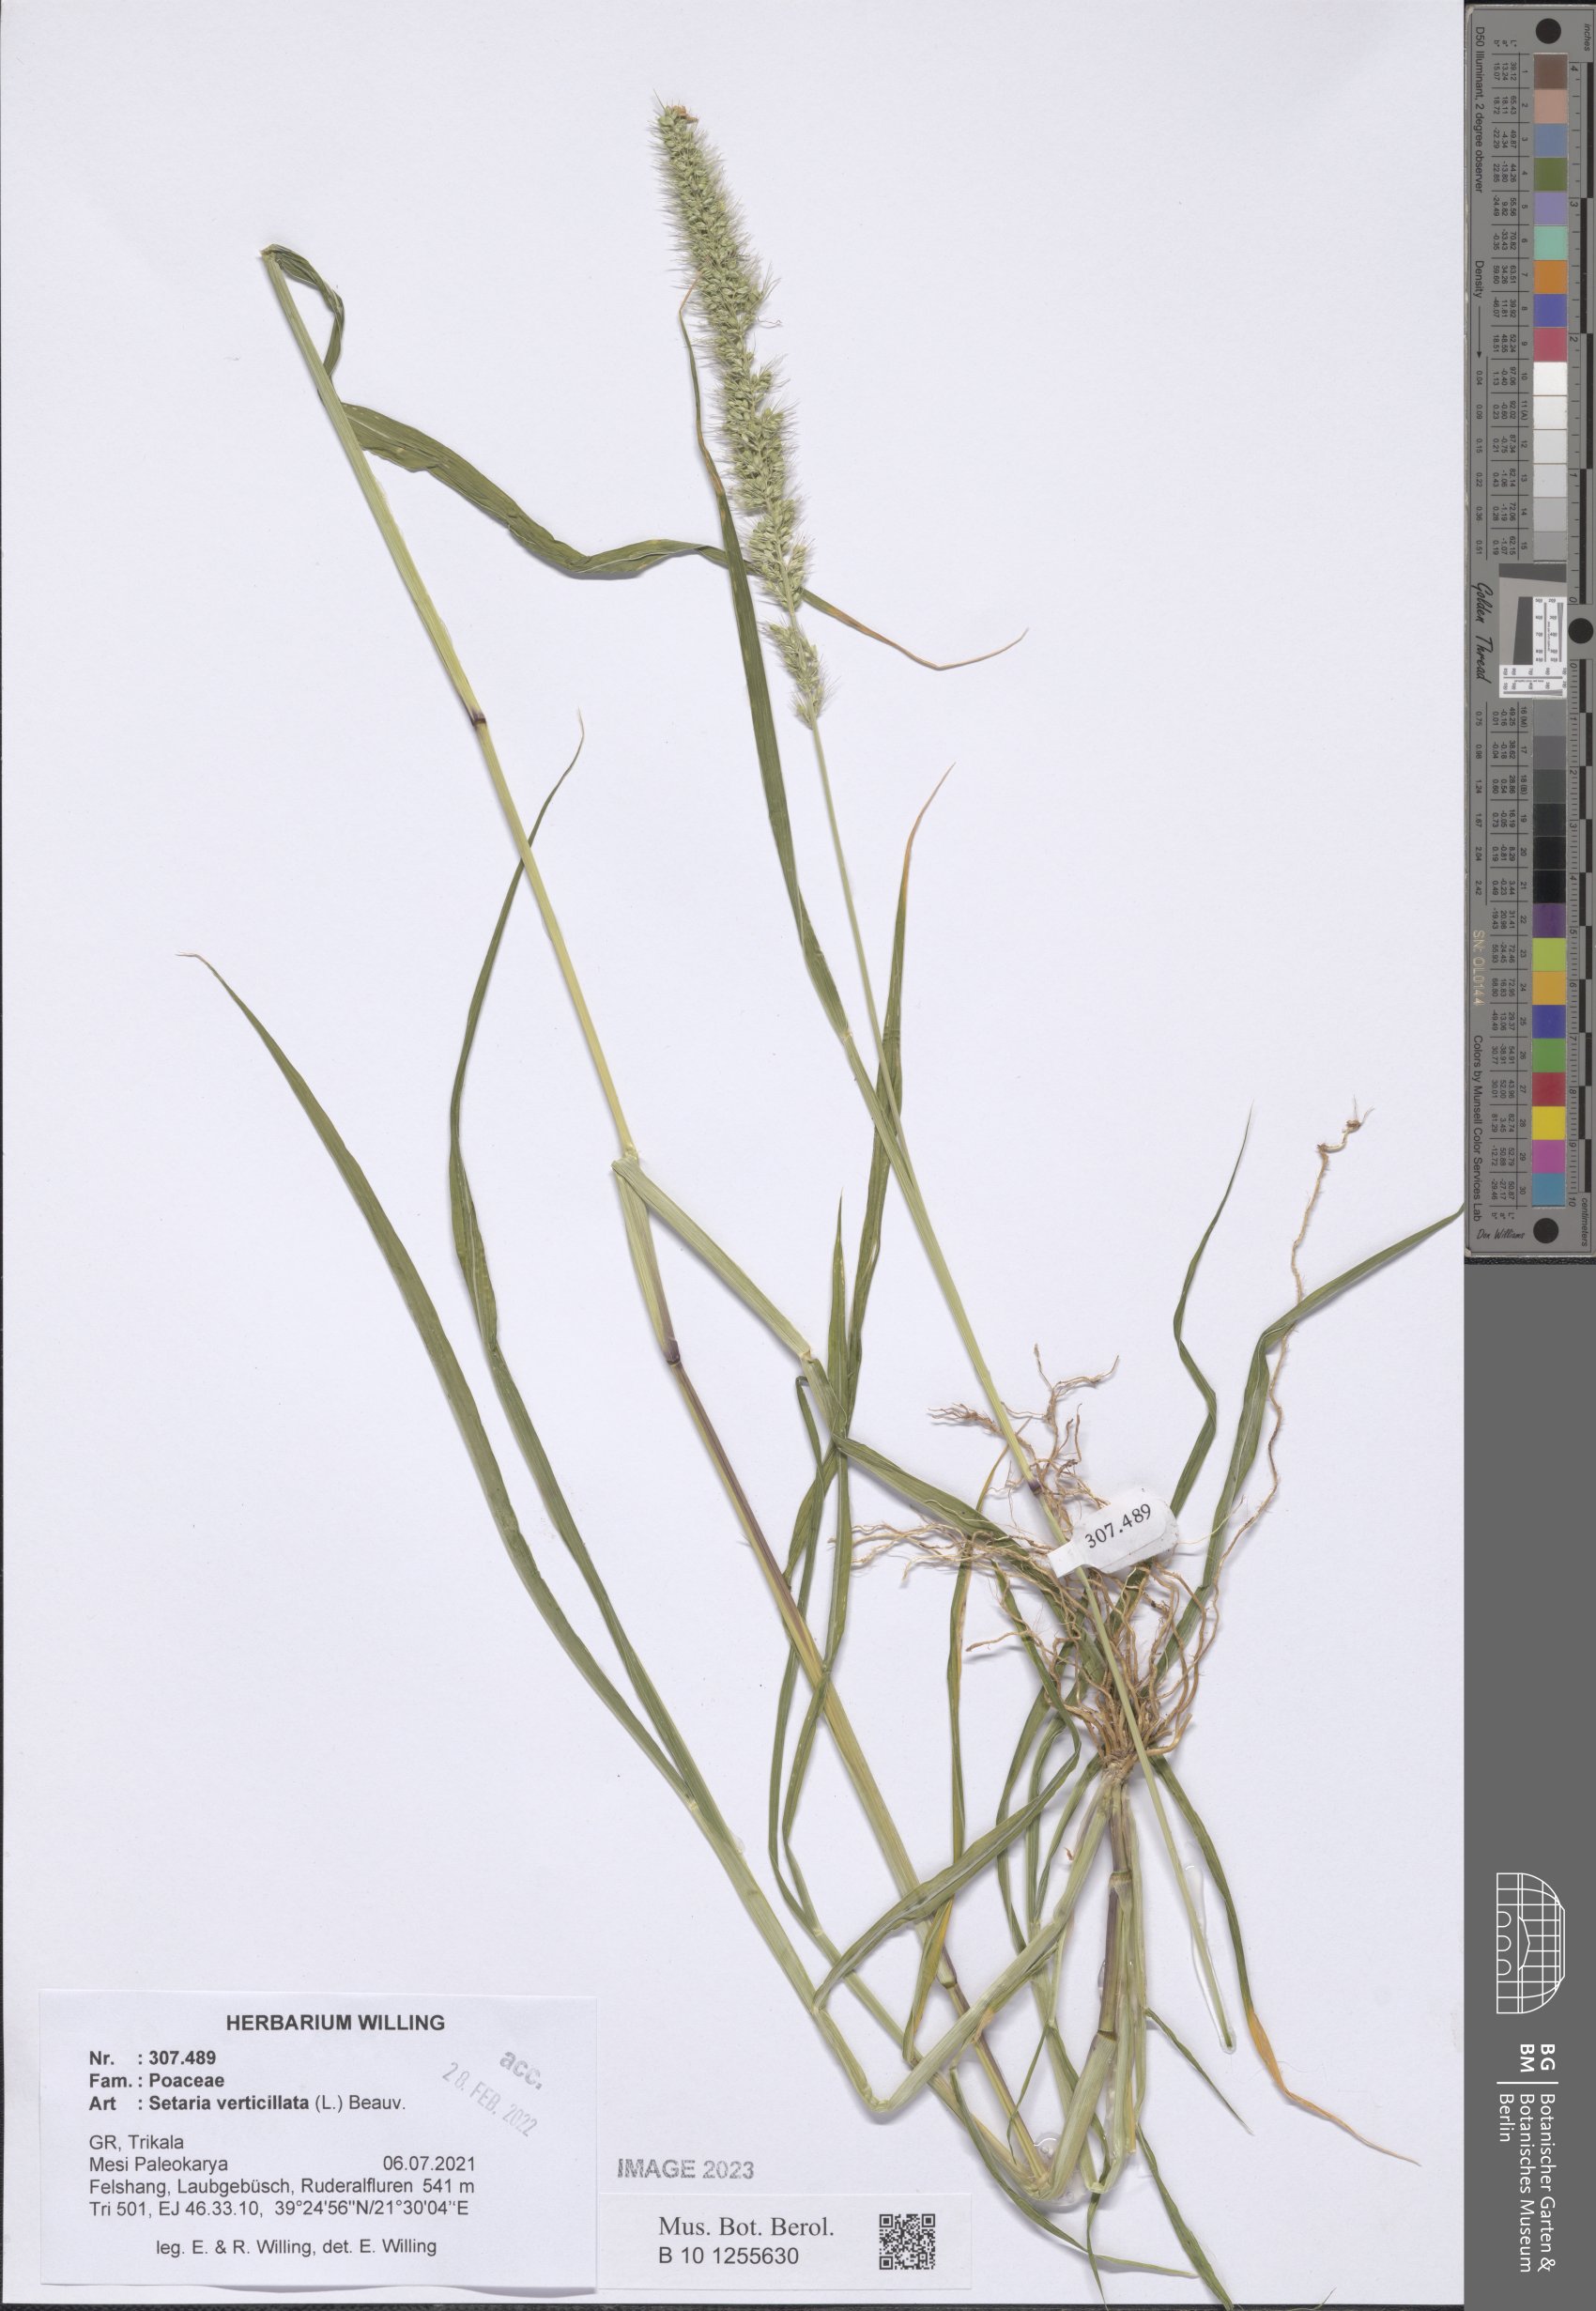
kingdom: Plantae
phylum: Tracheophyta
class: Liliopsida
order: Poales
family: Poaceae
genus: Setaria
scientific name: Setaria verticillata
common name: Hooked bristlegrass
